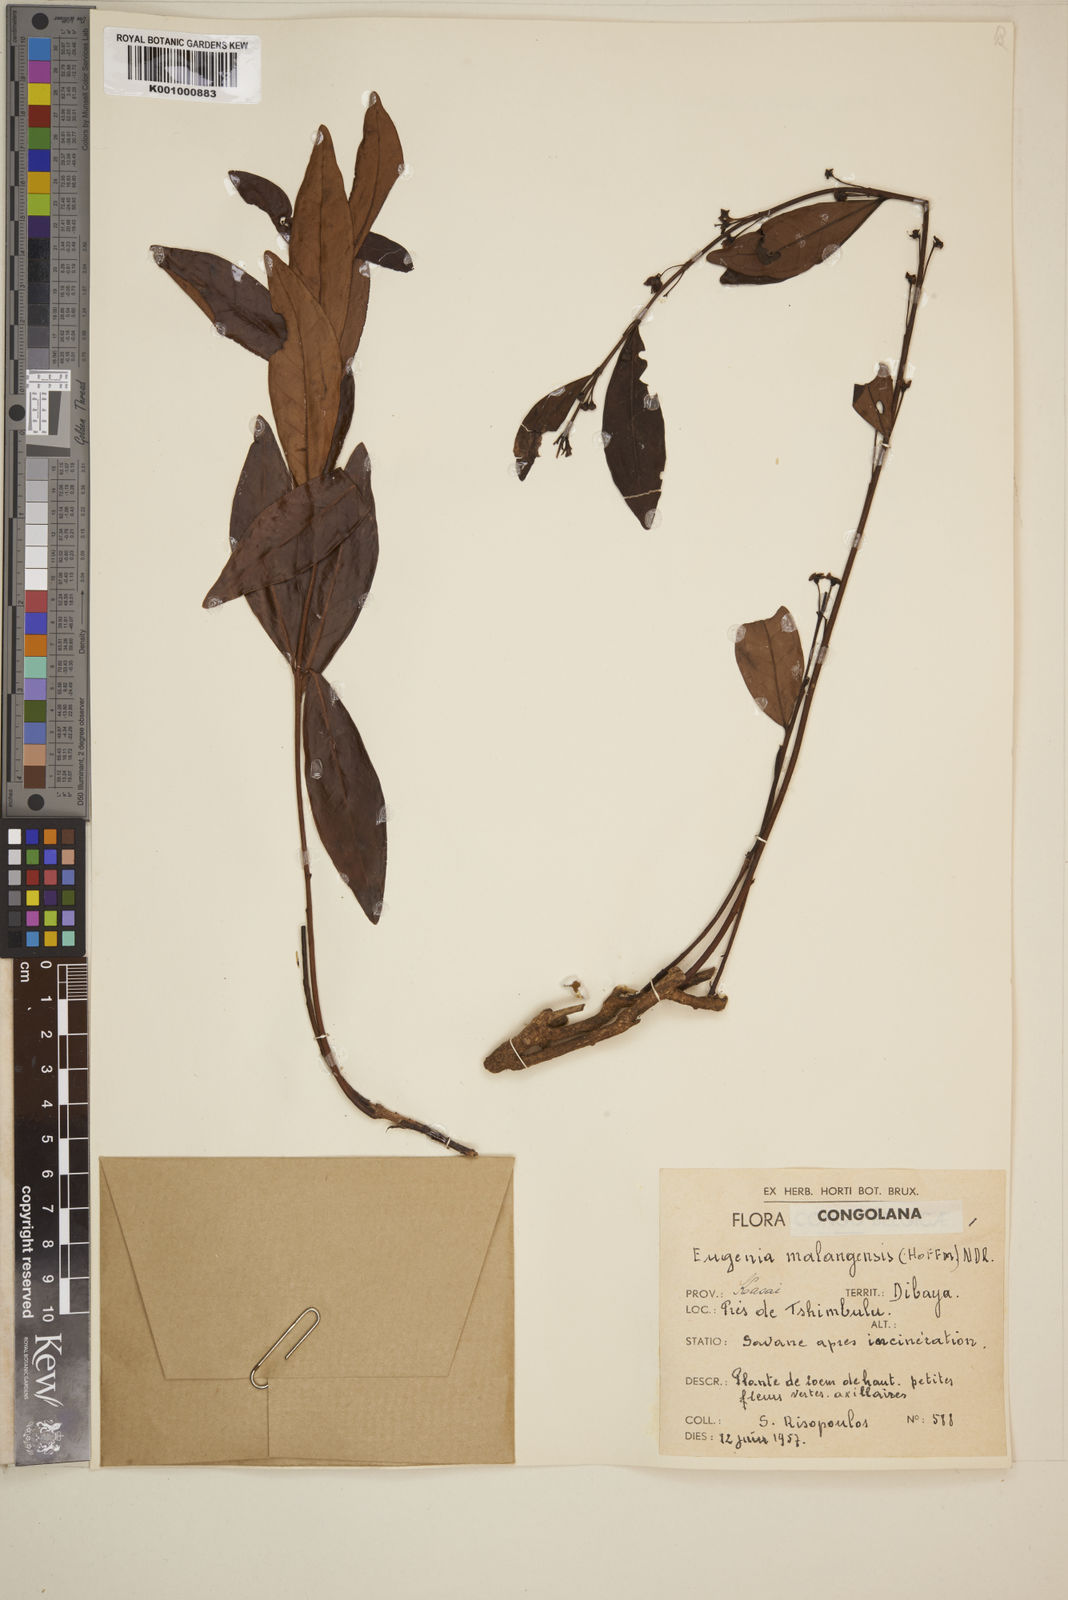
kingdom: Plantae
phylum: Tracheophyta
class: Magnoliopsida
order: Myrtales
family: Myrtaceae
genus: Eugenia
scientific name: Eugenia malangensis
